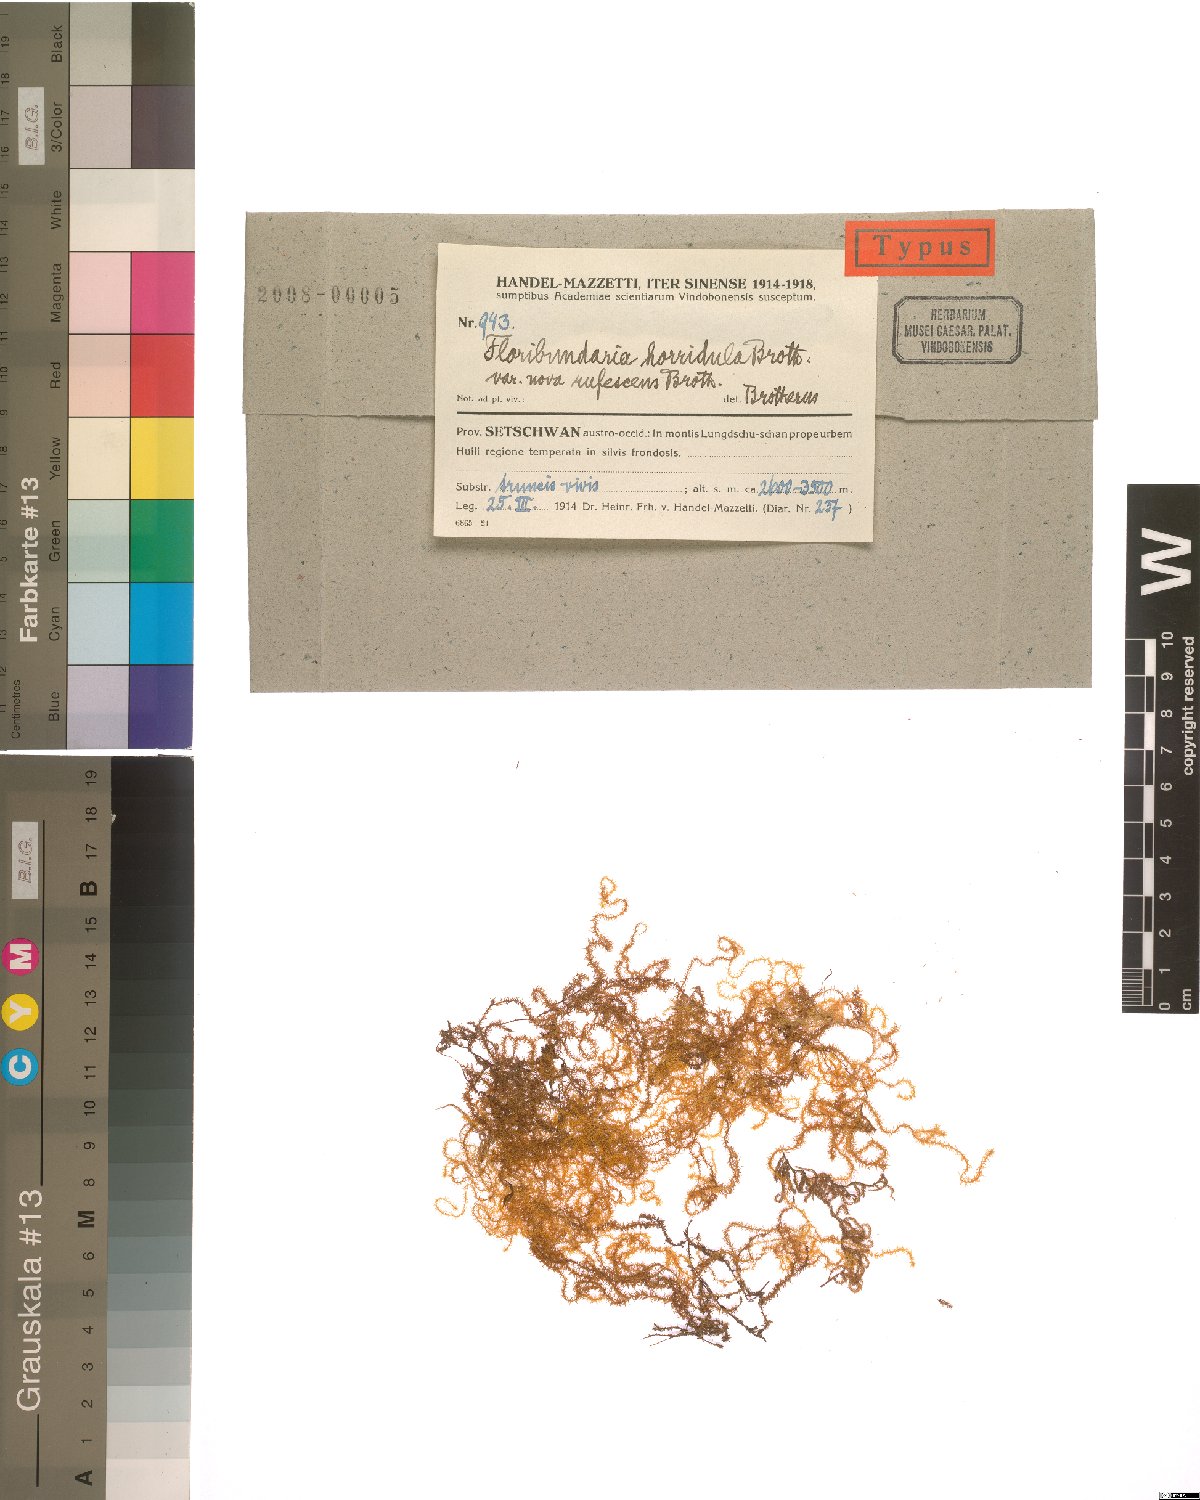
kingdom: Plantae
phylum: Bryophyta
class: Bryopsida
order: Hypnales
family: Meteoriaceae
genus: Sinskea
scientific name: Sinskea flammea
